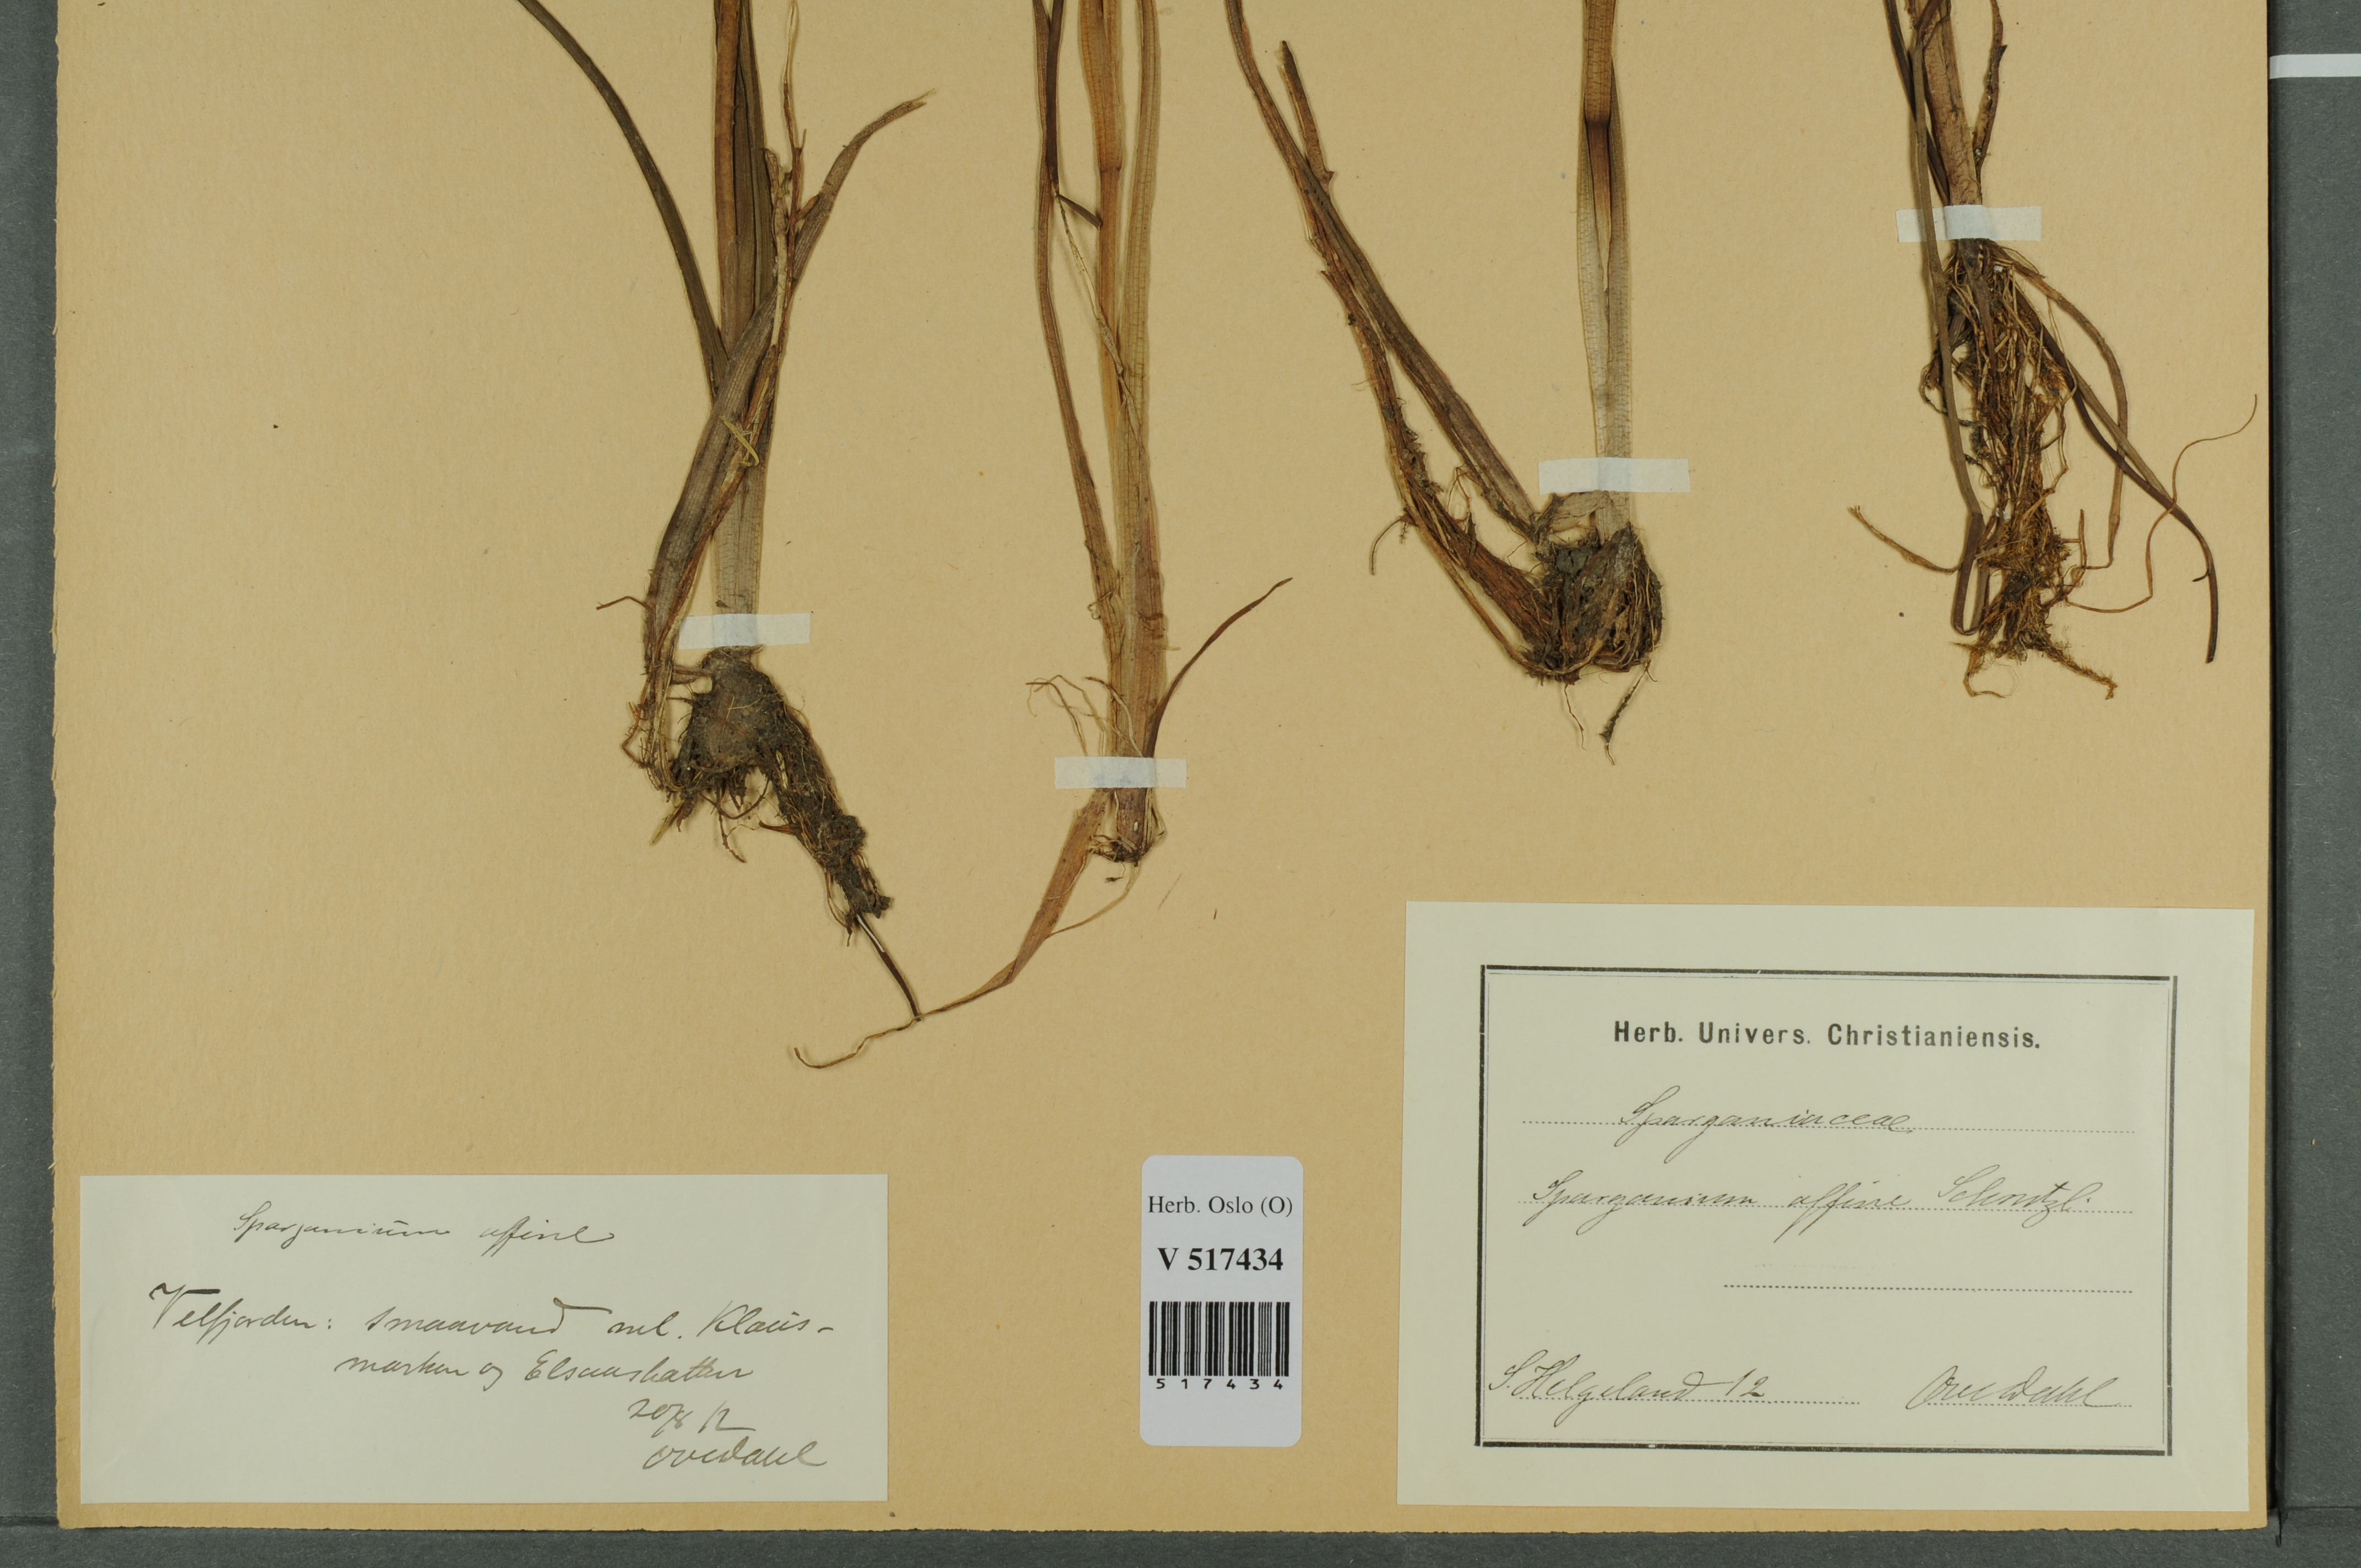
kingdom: Plantae
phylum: Tracheophyta
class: Liliopsida
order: Poales
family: Typhaceae
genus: Sparganium
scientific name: Sparganium angustifolium
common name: Floating bur-reed
